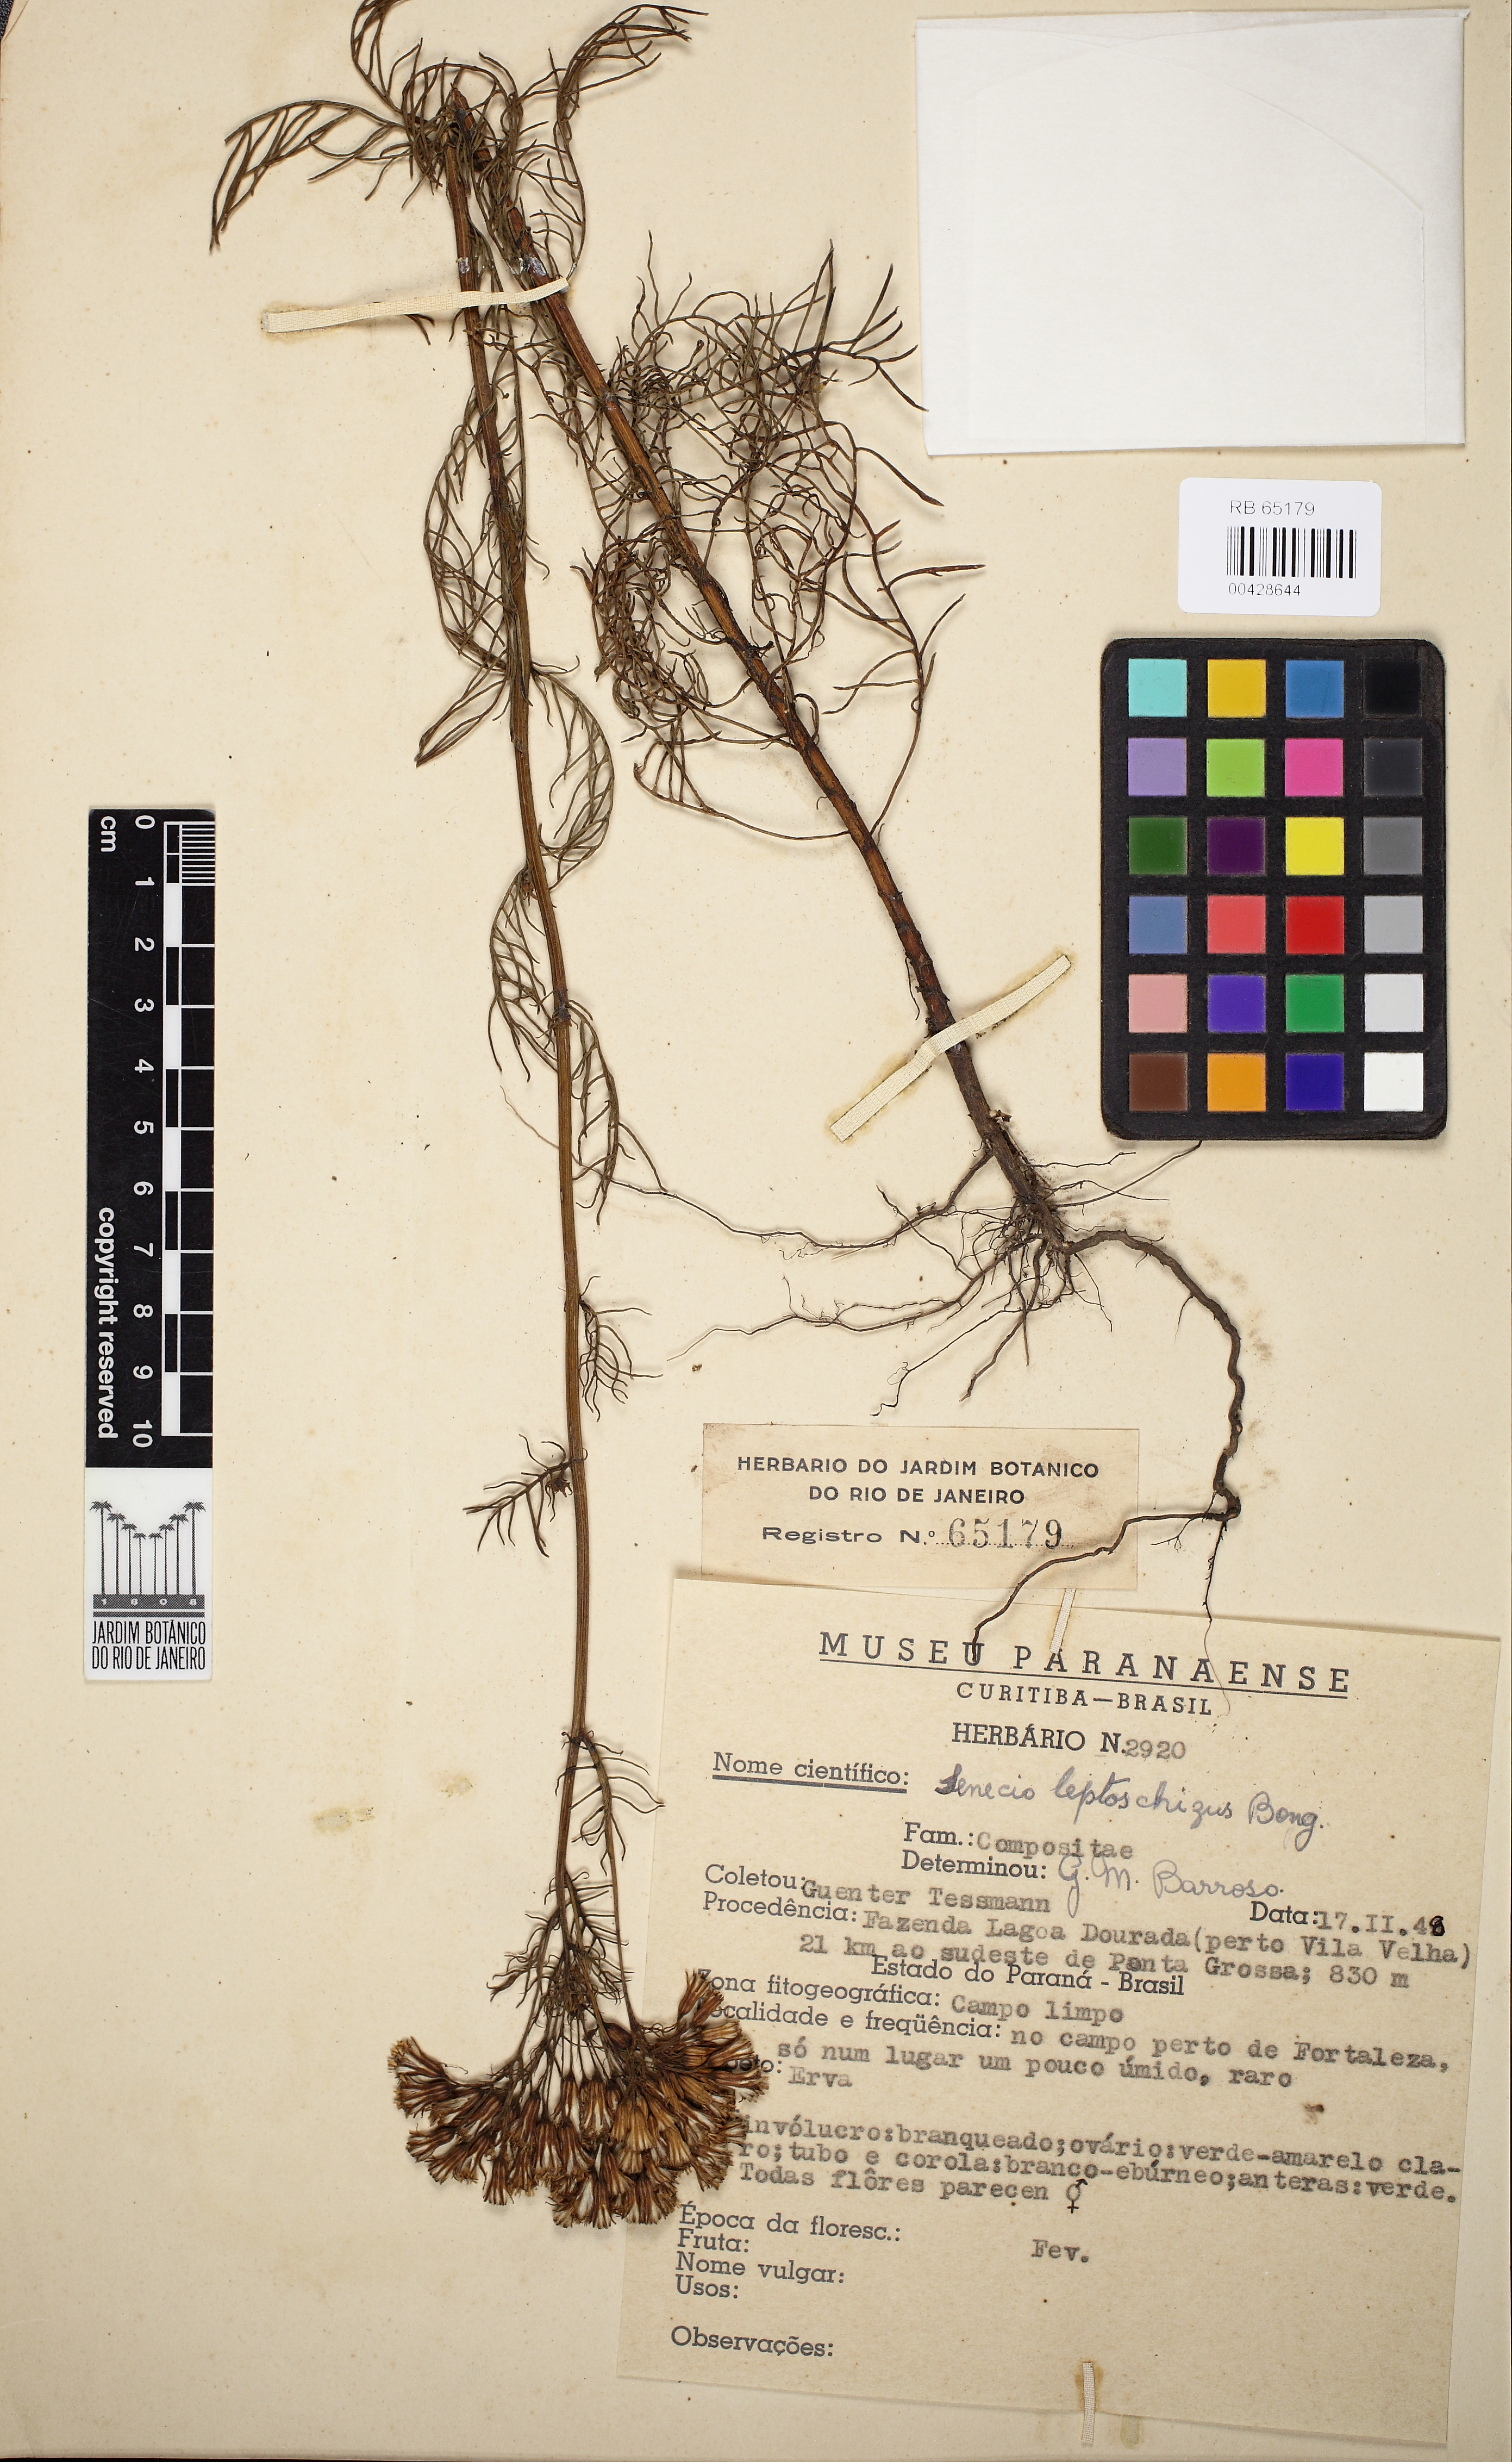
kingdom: Plantae
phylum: Tracheophyta
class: Magnoliopsida
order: Asterales
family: Asteraceae
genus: Senecio
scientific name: Senecio leptoschizus
